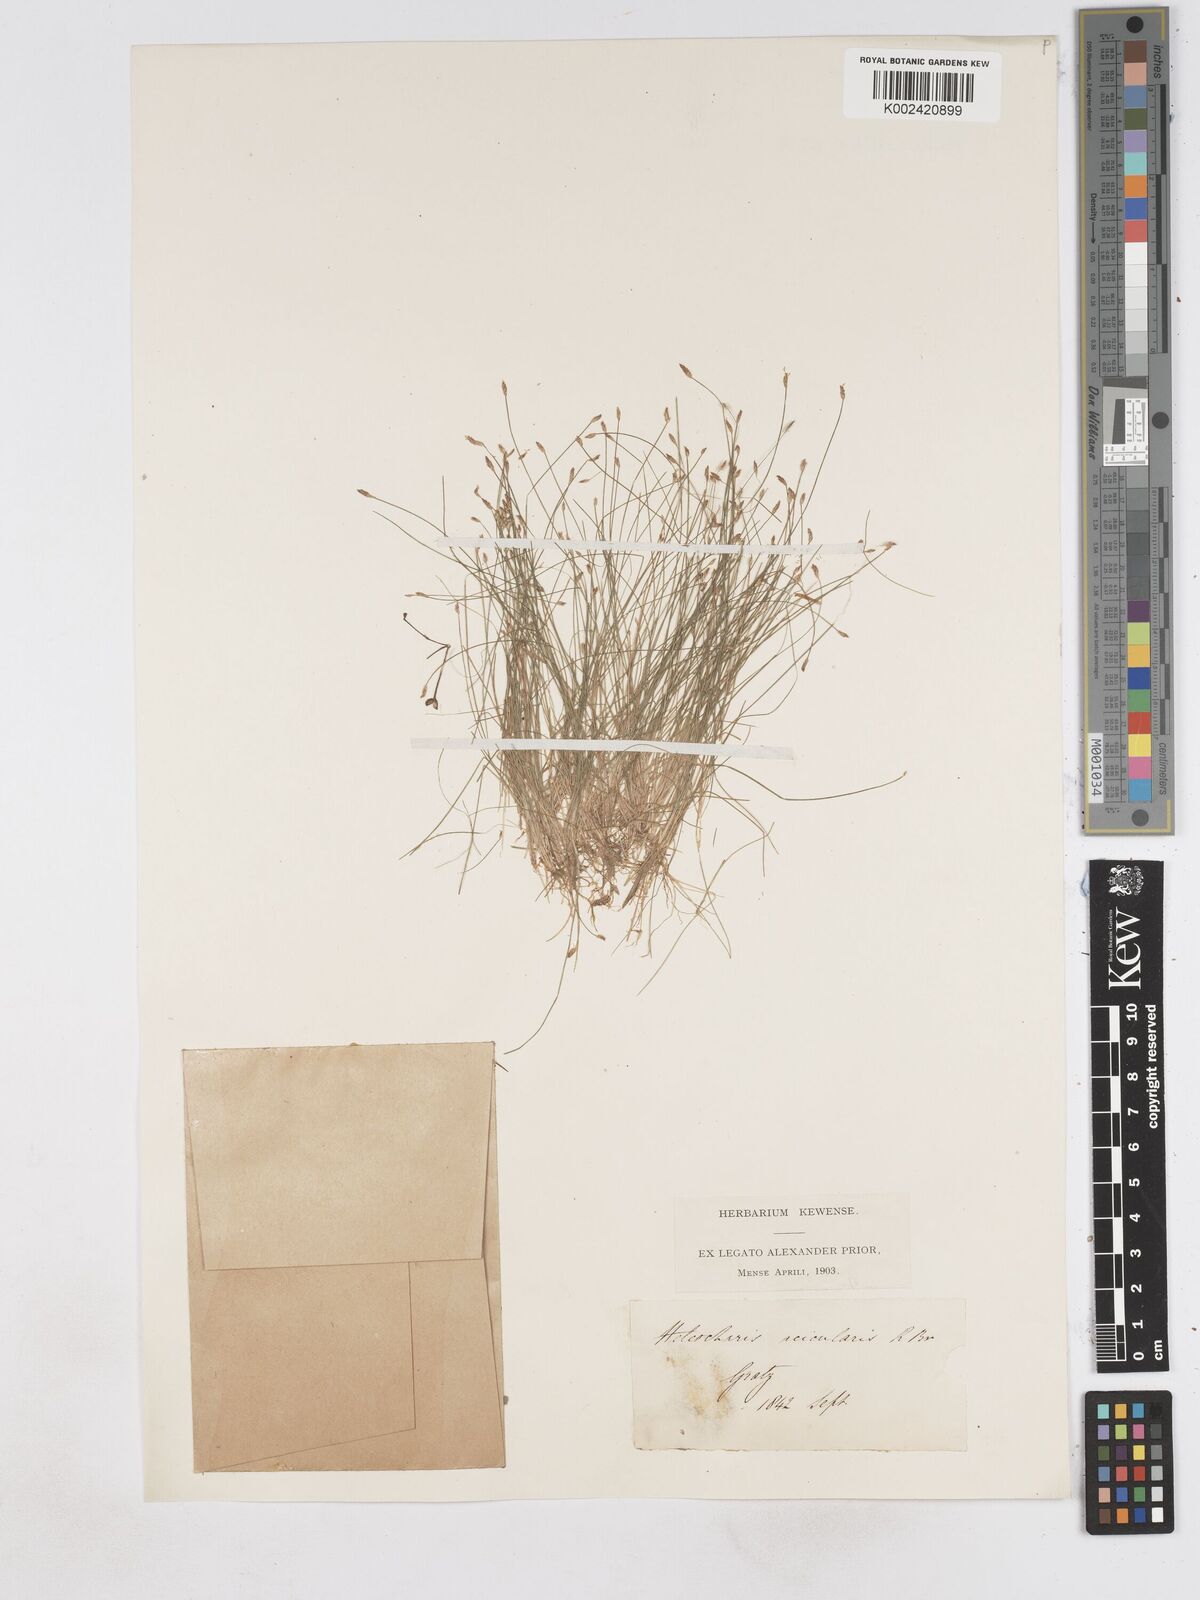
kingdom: Plantae
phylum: Tracheophyta
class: Liliopsida
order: Poales
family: Cyperaceae
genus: Eleocharis
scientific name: Eleocharis acicularis
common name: Needle spike-rush
